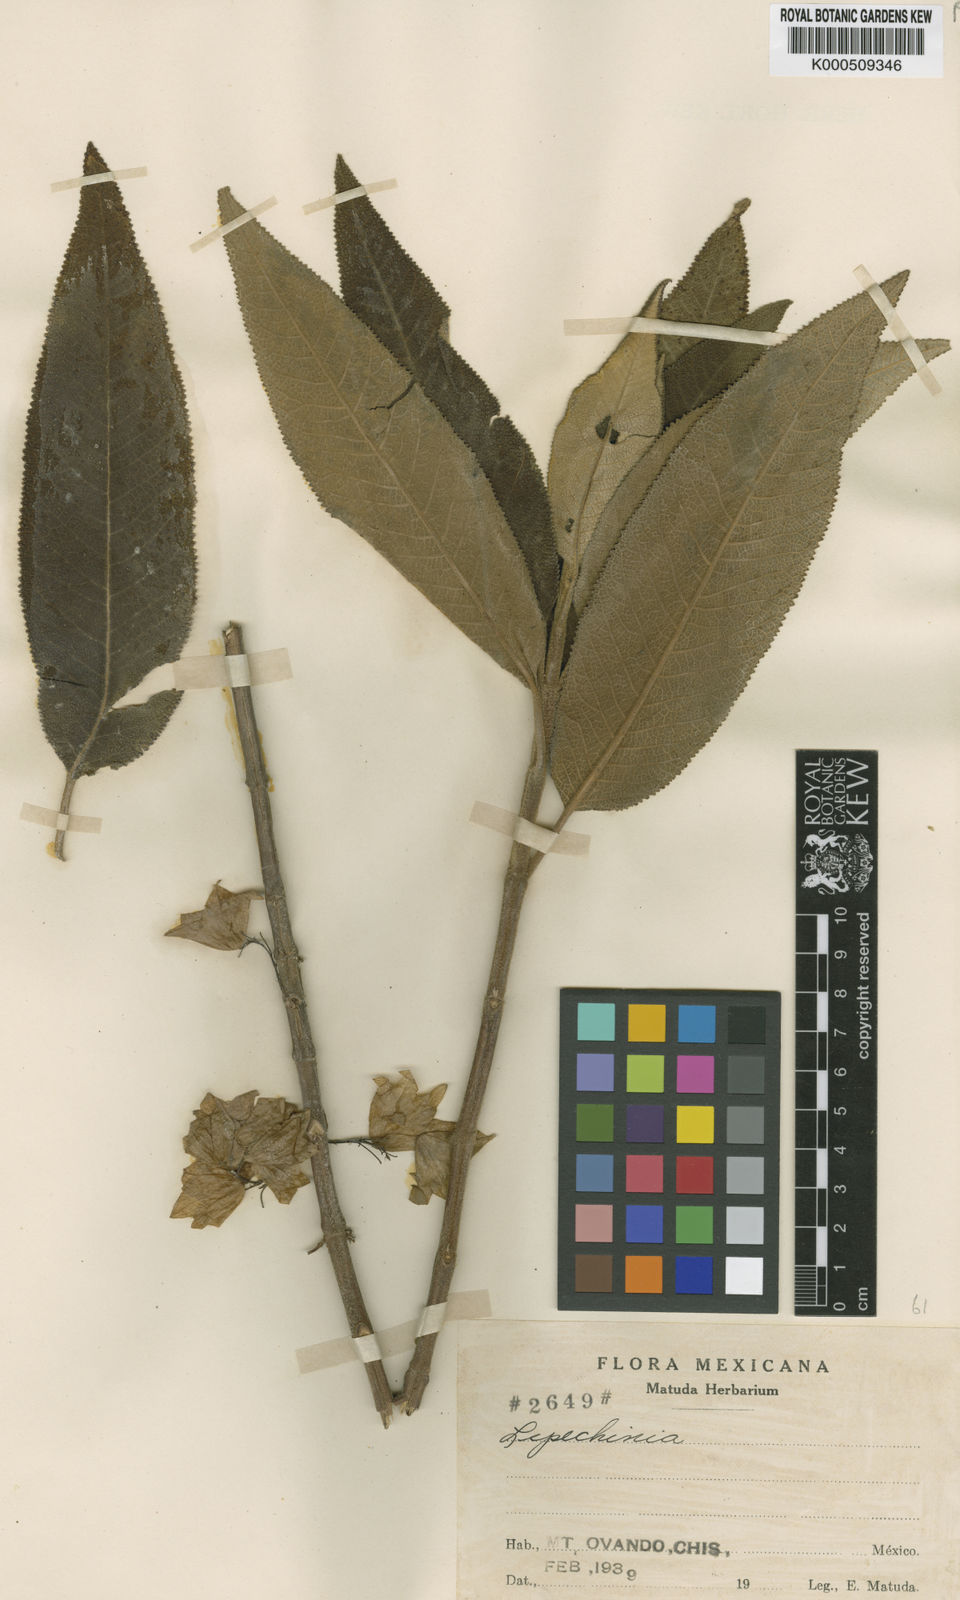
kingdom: Plantae
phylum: Tracheophyta
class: Magnoliopsida
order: Lamiales
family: Lamiaceae
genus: Lepechinia
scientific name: Lepechinia mecistandrum
